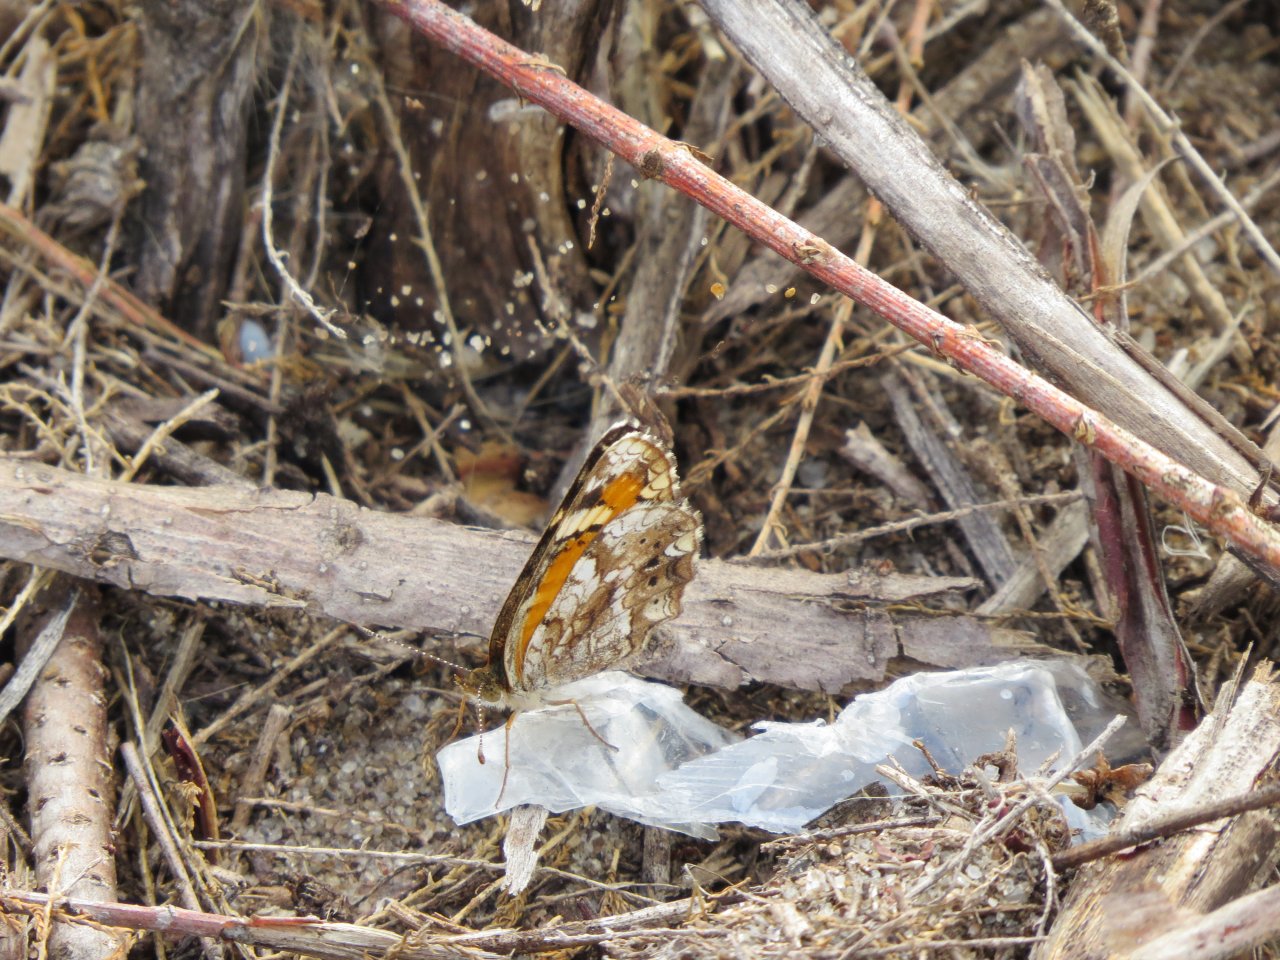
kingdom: Animalia
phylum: Arthropoda
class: Insecta
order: Lepidoptera
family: Nymphalidae
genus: Phyciodes
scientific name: Phyciodes phaon
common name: Phaon Crescent
